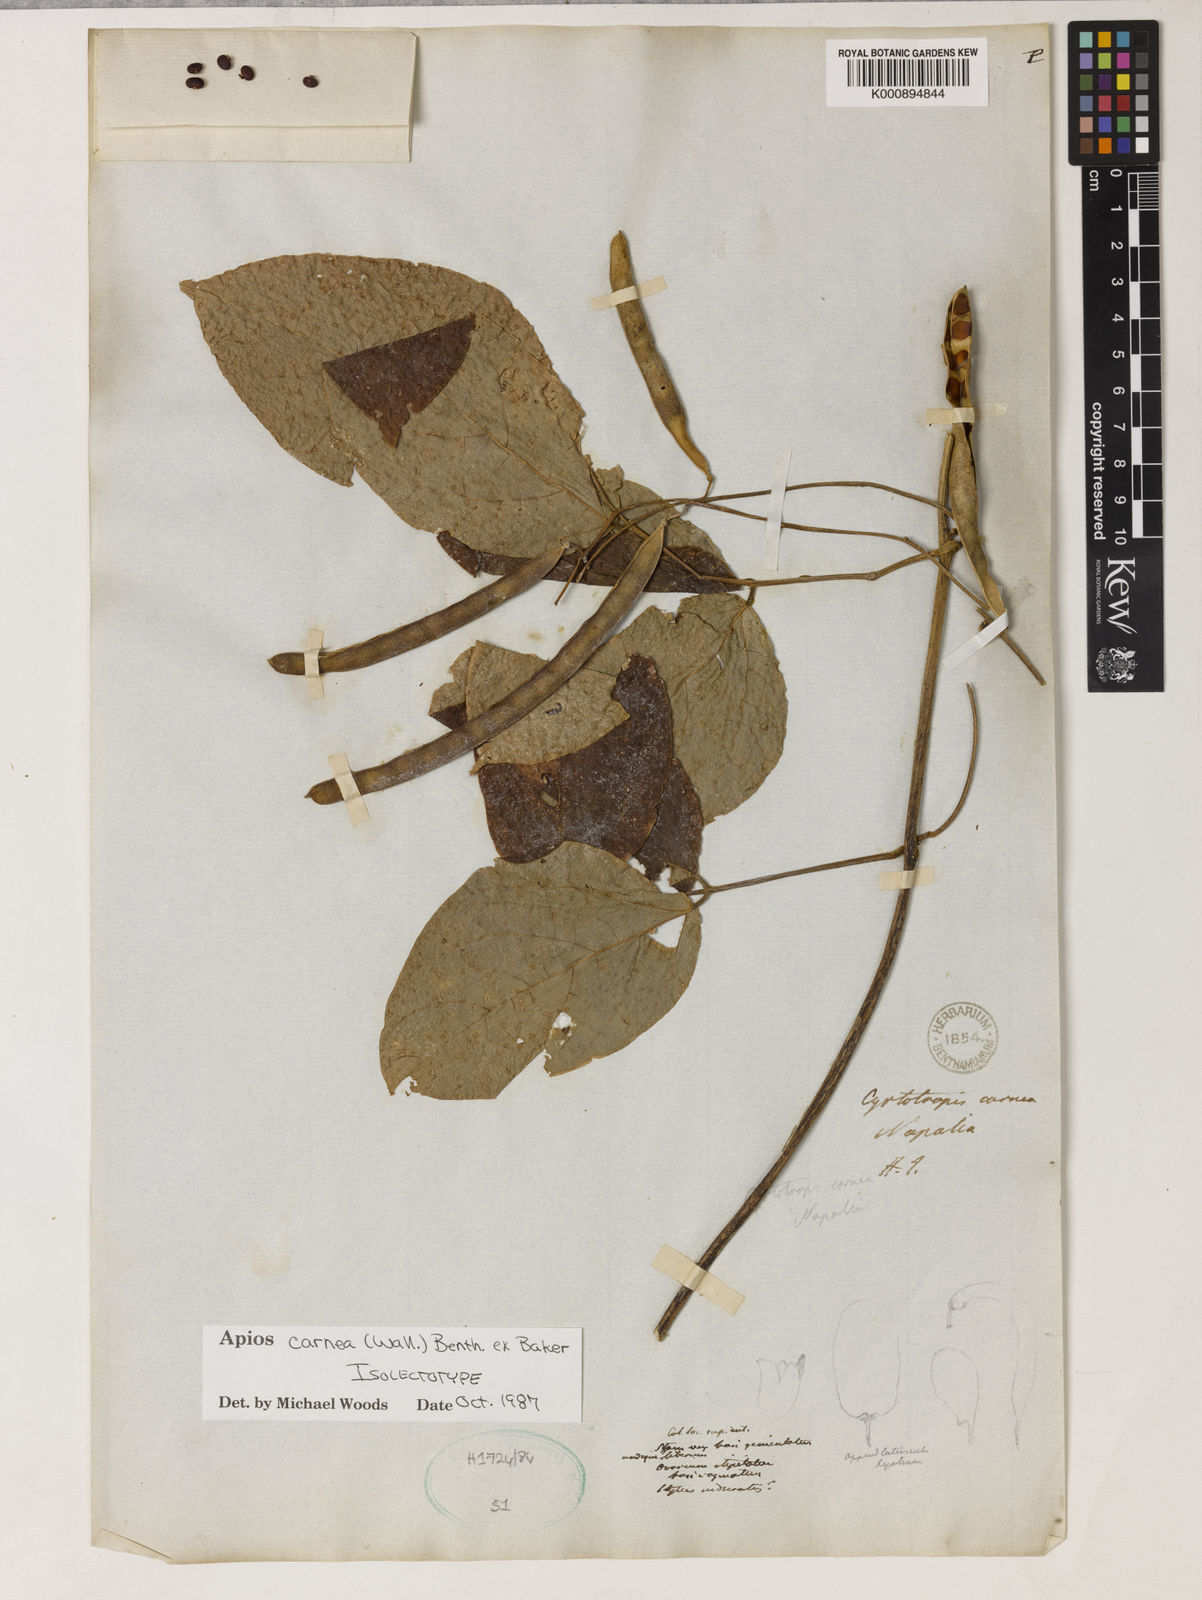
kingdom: Plantae
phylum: Tracheophyta
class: Magnoliopsida
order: Fabales
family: Fabaceae
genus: Apios
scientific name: Apios carnea
